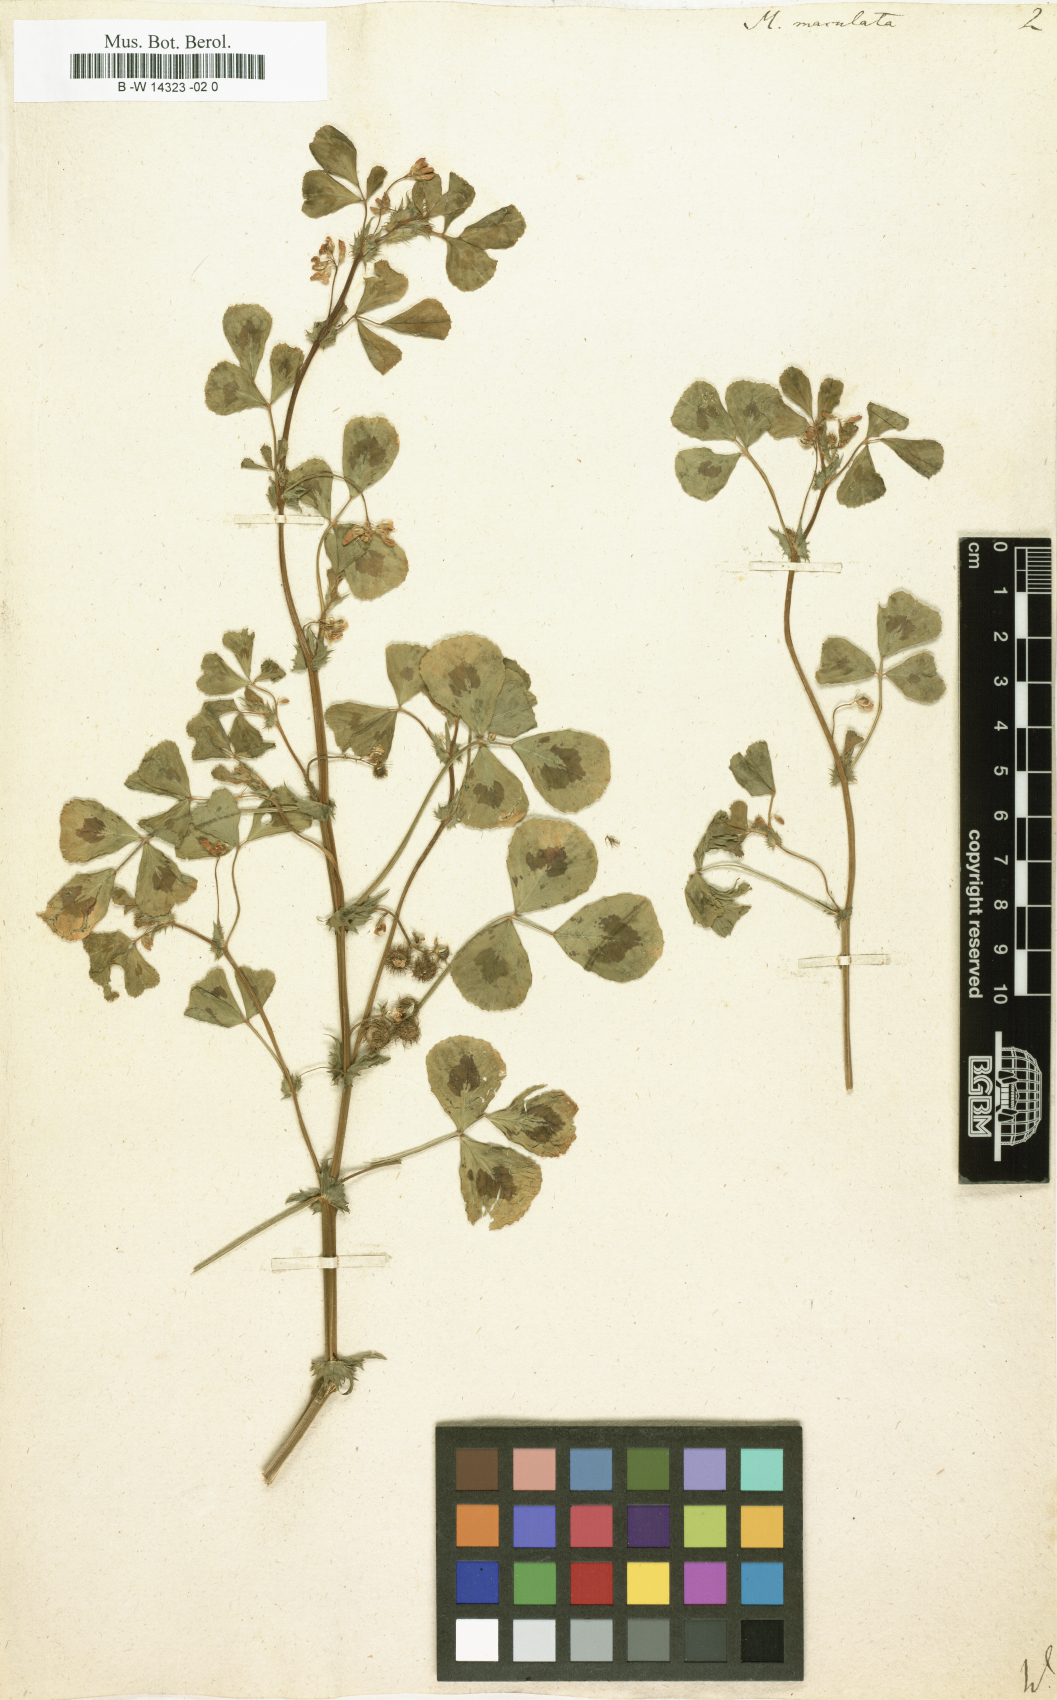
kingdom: Plantae
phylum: Tracheophyta
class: Magnoliopsida
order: Fabales
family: Fabaceae
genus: Medicago
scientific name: Medicago arabica
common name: Spotted medick
